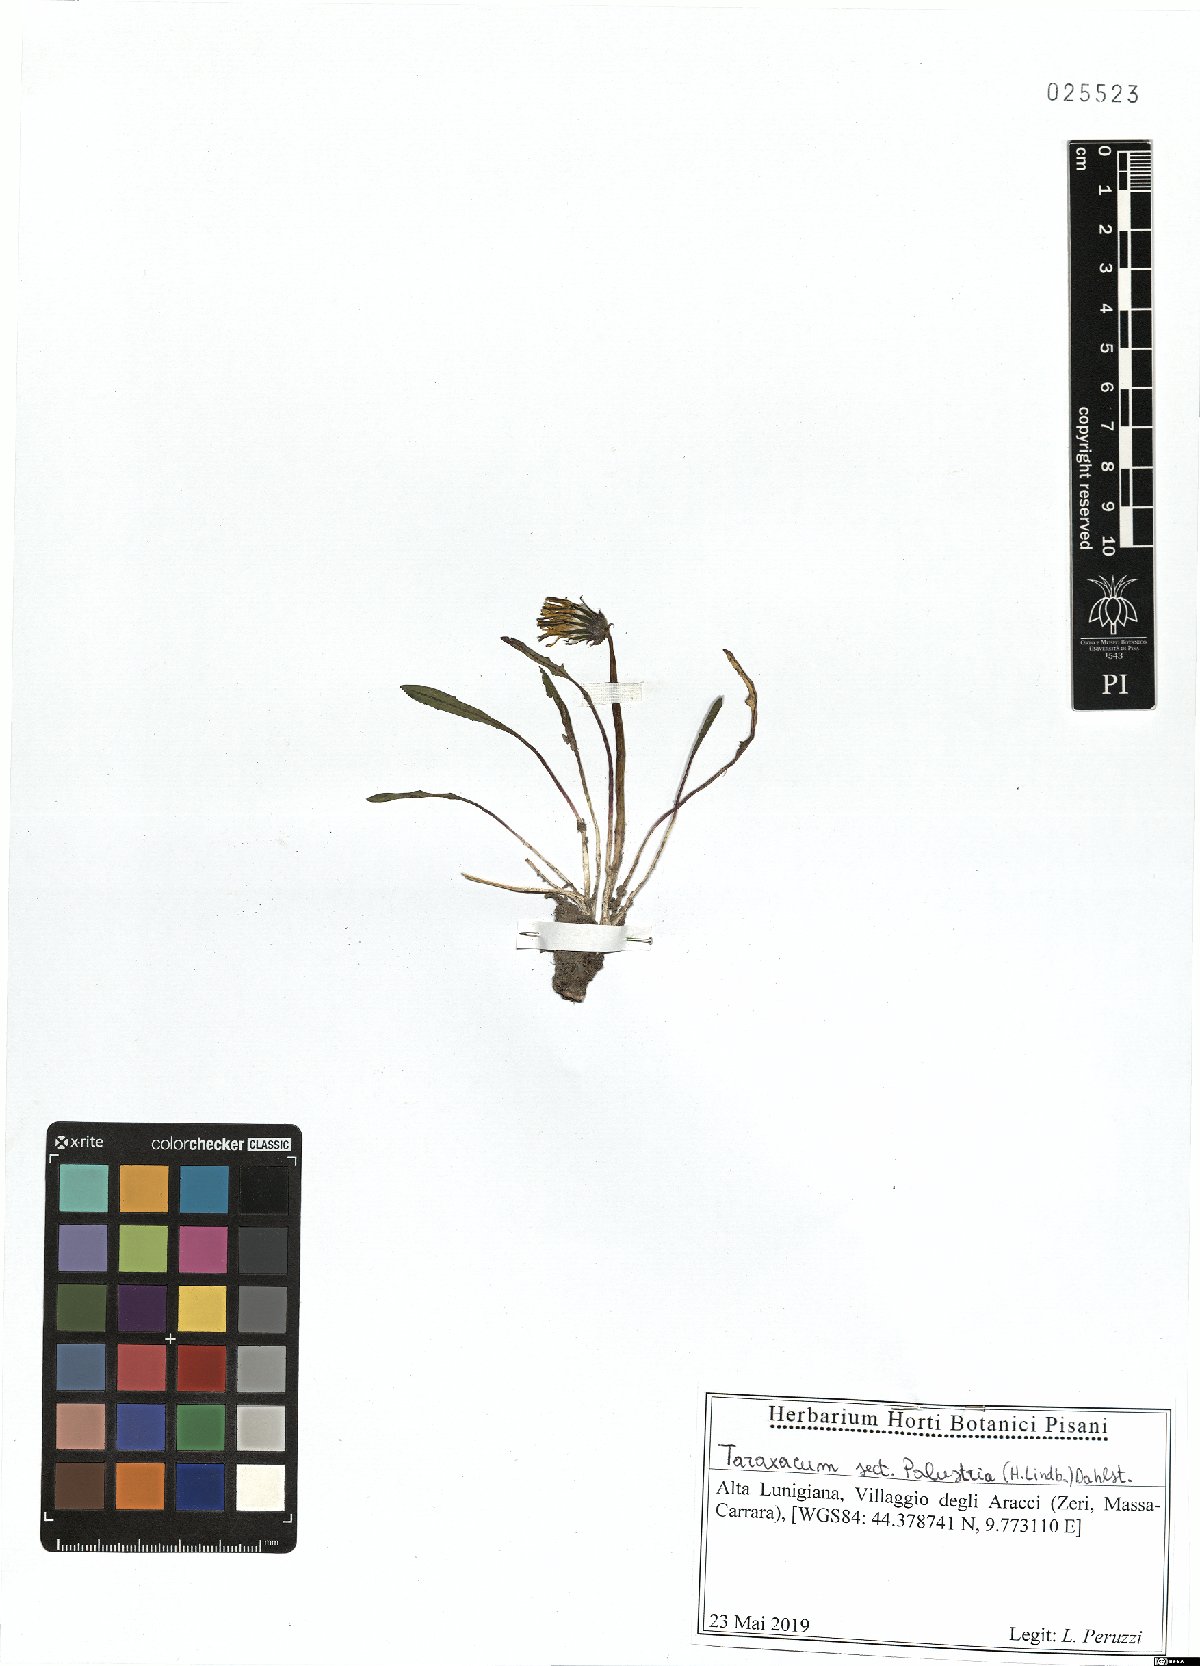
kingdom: Plantae
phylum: Tracheophyta
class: Magnoliopsida
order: Asterales
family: Asteraceae
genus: Taraxacum
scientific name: Taraxacum palustria
